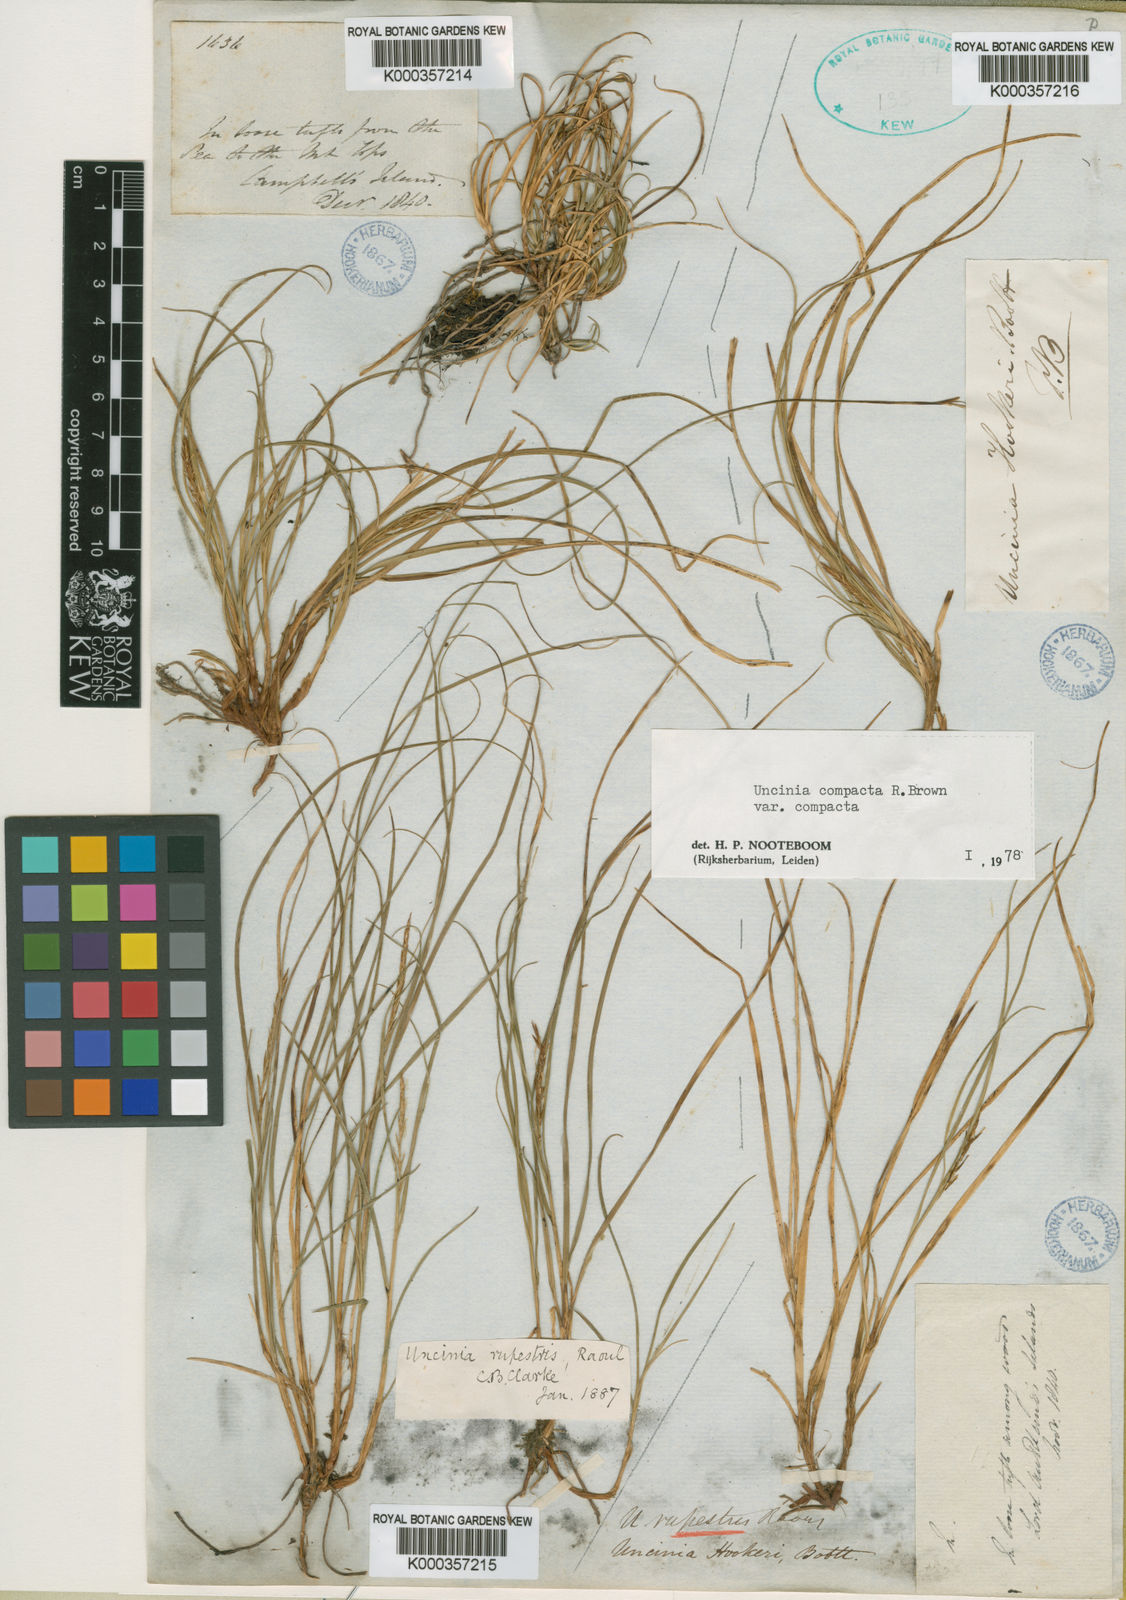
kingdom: Fungi
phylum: Ascomycota
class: Leotiomycetes
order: Helotiales
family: Hamatocanthoscyphaceae
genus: Uncinia
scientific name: Uncinia
